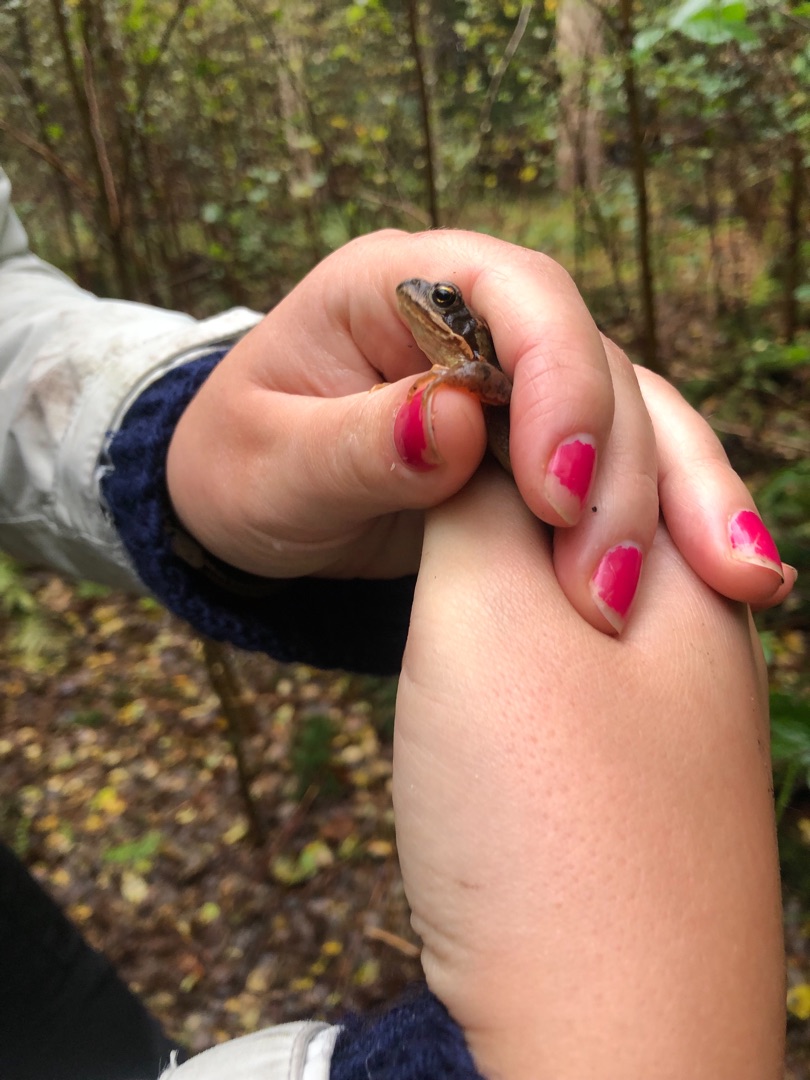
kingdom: Animalia
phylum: Chordata
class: Amphibia
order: Anura
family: Ranidae
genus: Rana
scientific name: Rana temporaria
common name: Butsnudet frø
